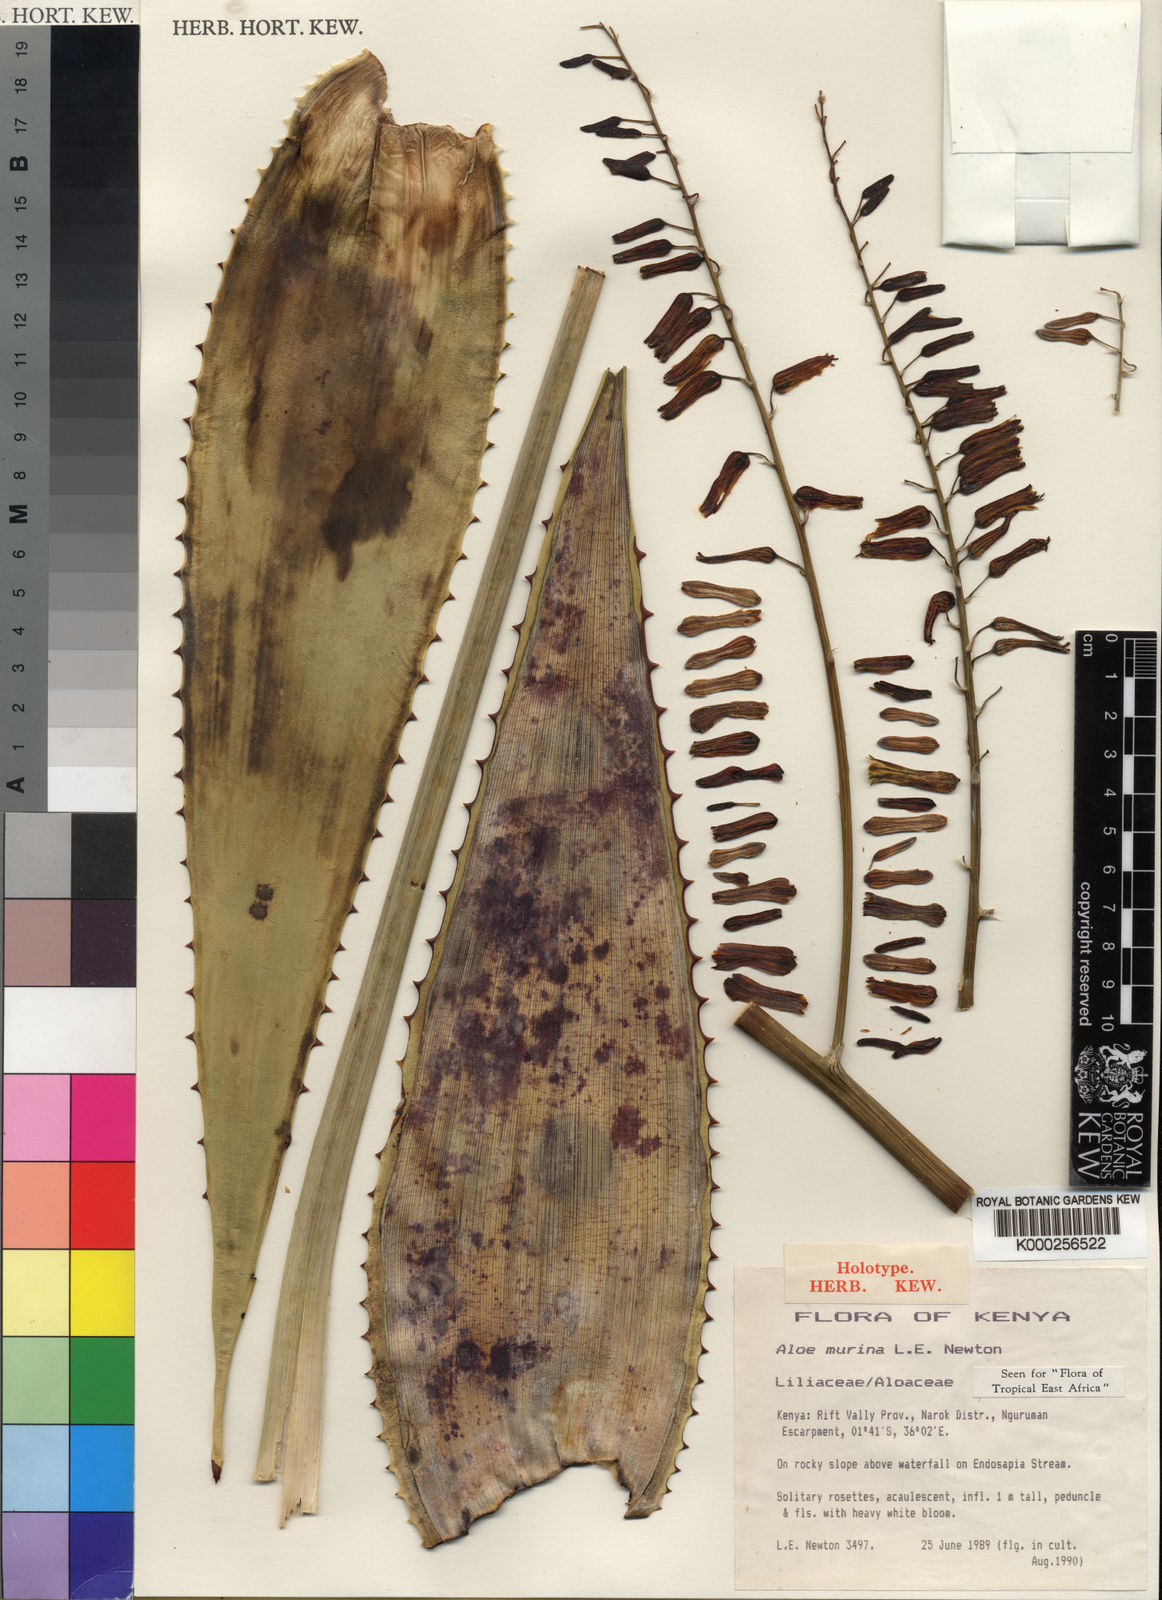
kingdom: Plantae
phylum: Tracheophyta
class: Liliopsida
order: Asparagales
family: Asphodelaceae
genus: Aloe
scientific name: Aloe murina
